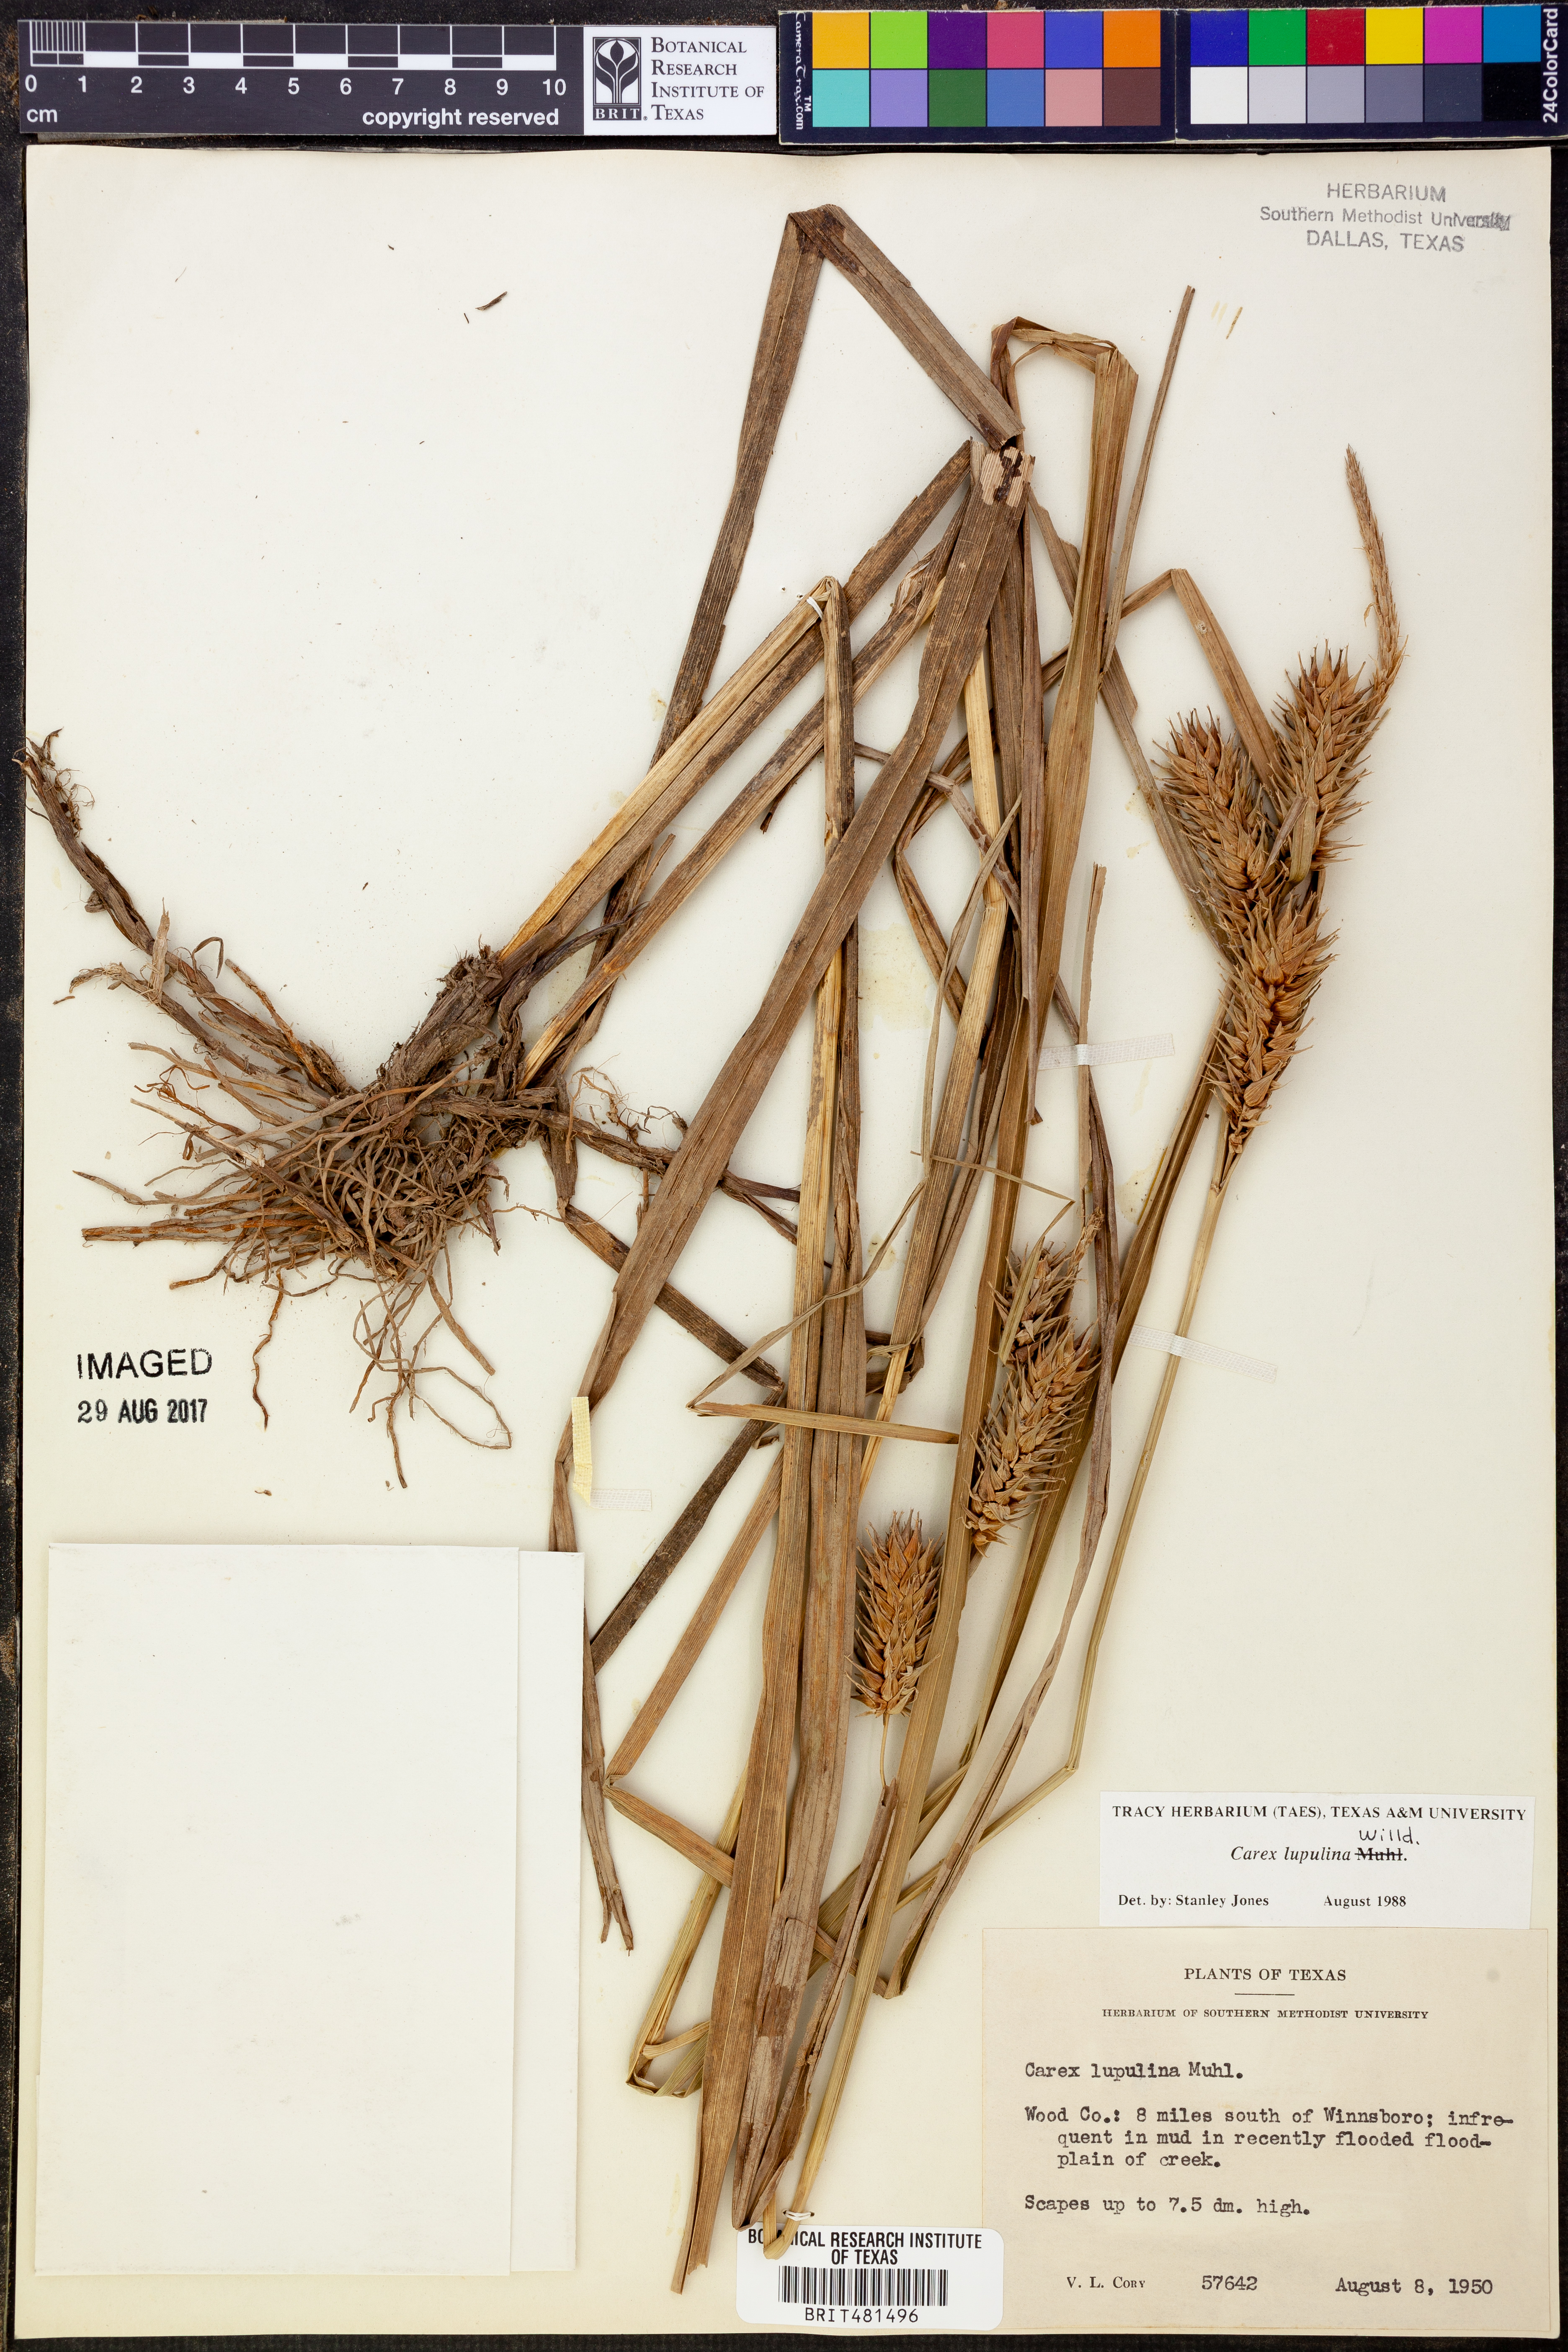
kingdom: Plantae
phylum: Tracheophyta
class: Liliopsida
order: Poales
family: Cyperaceae
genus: Carex
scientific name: Carex lupulina
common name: Hop sedge
